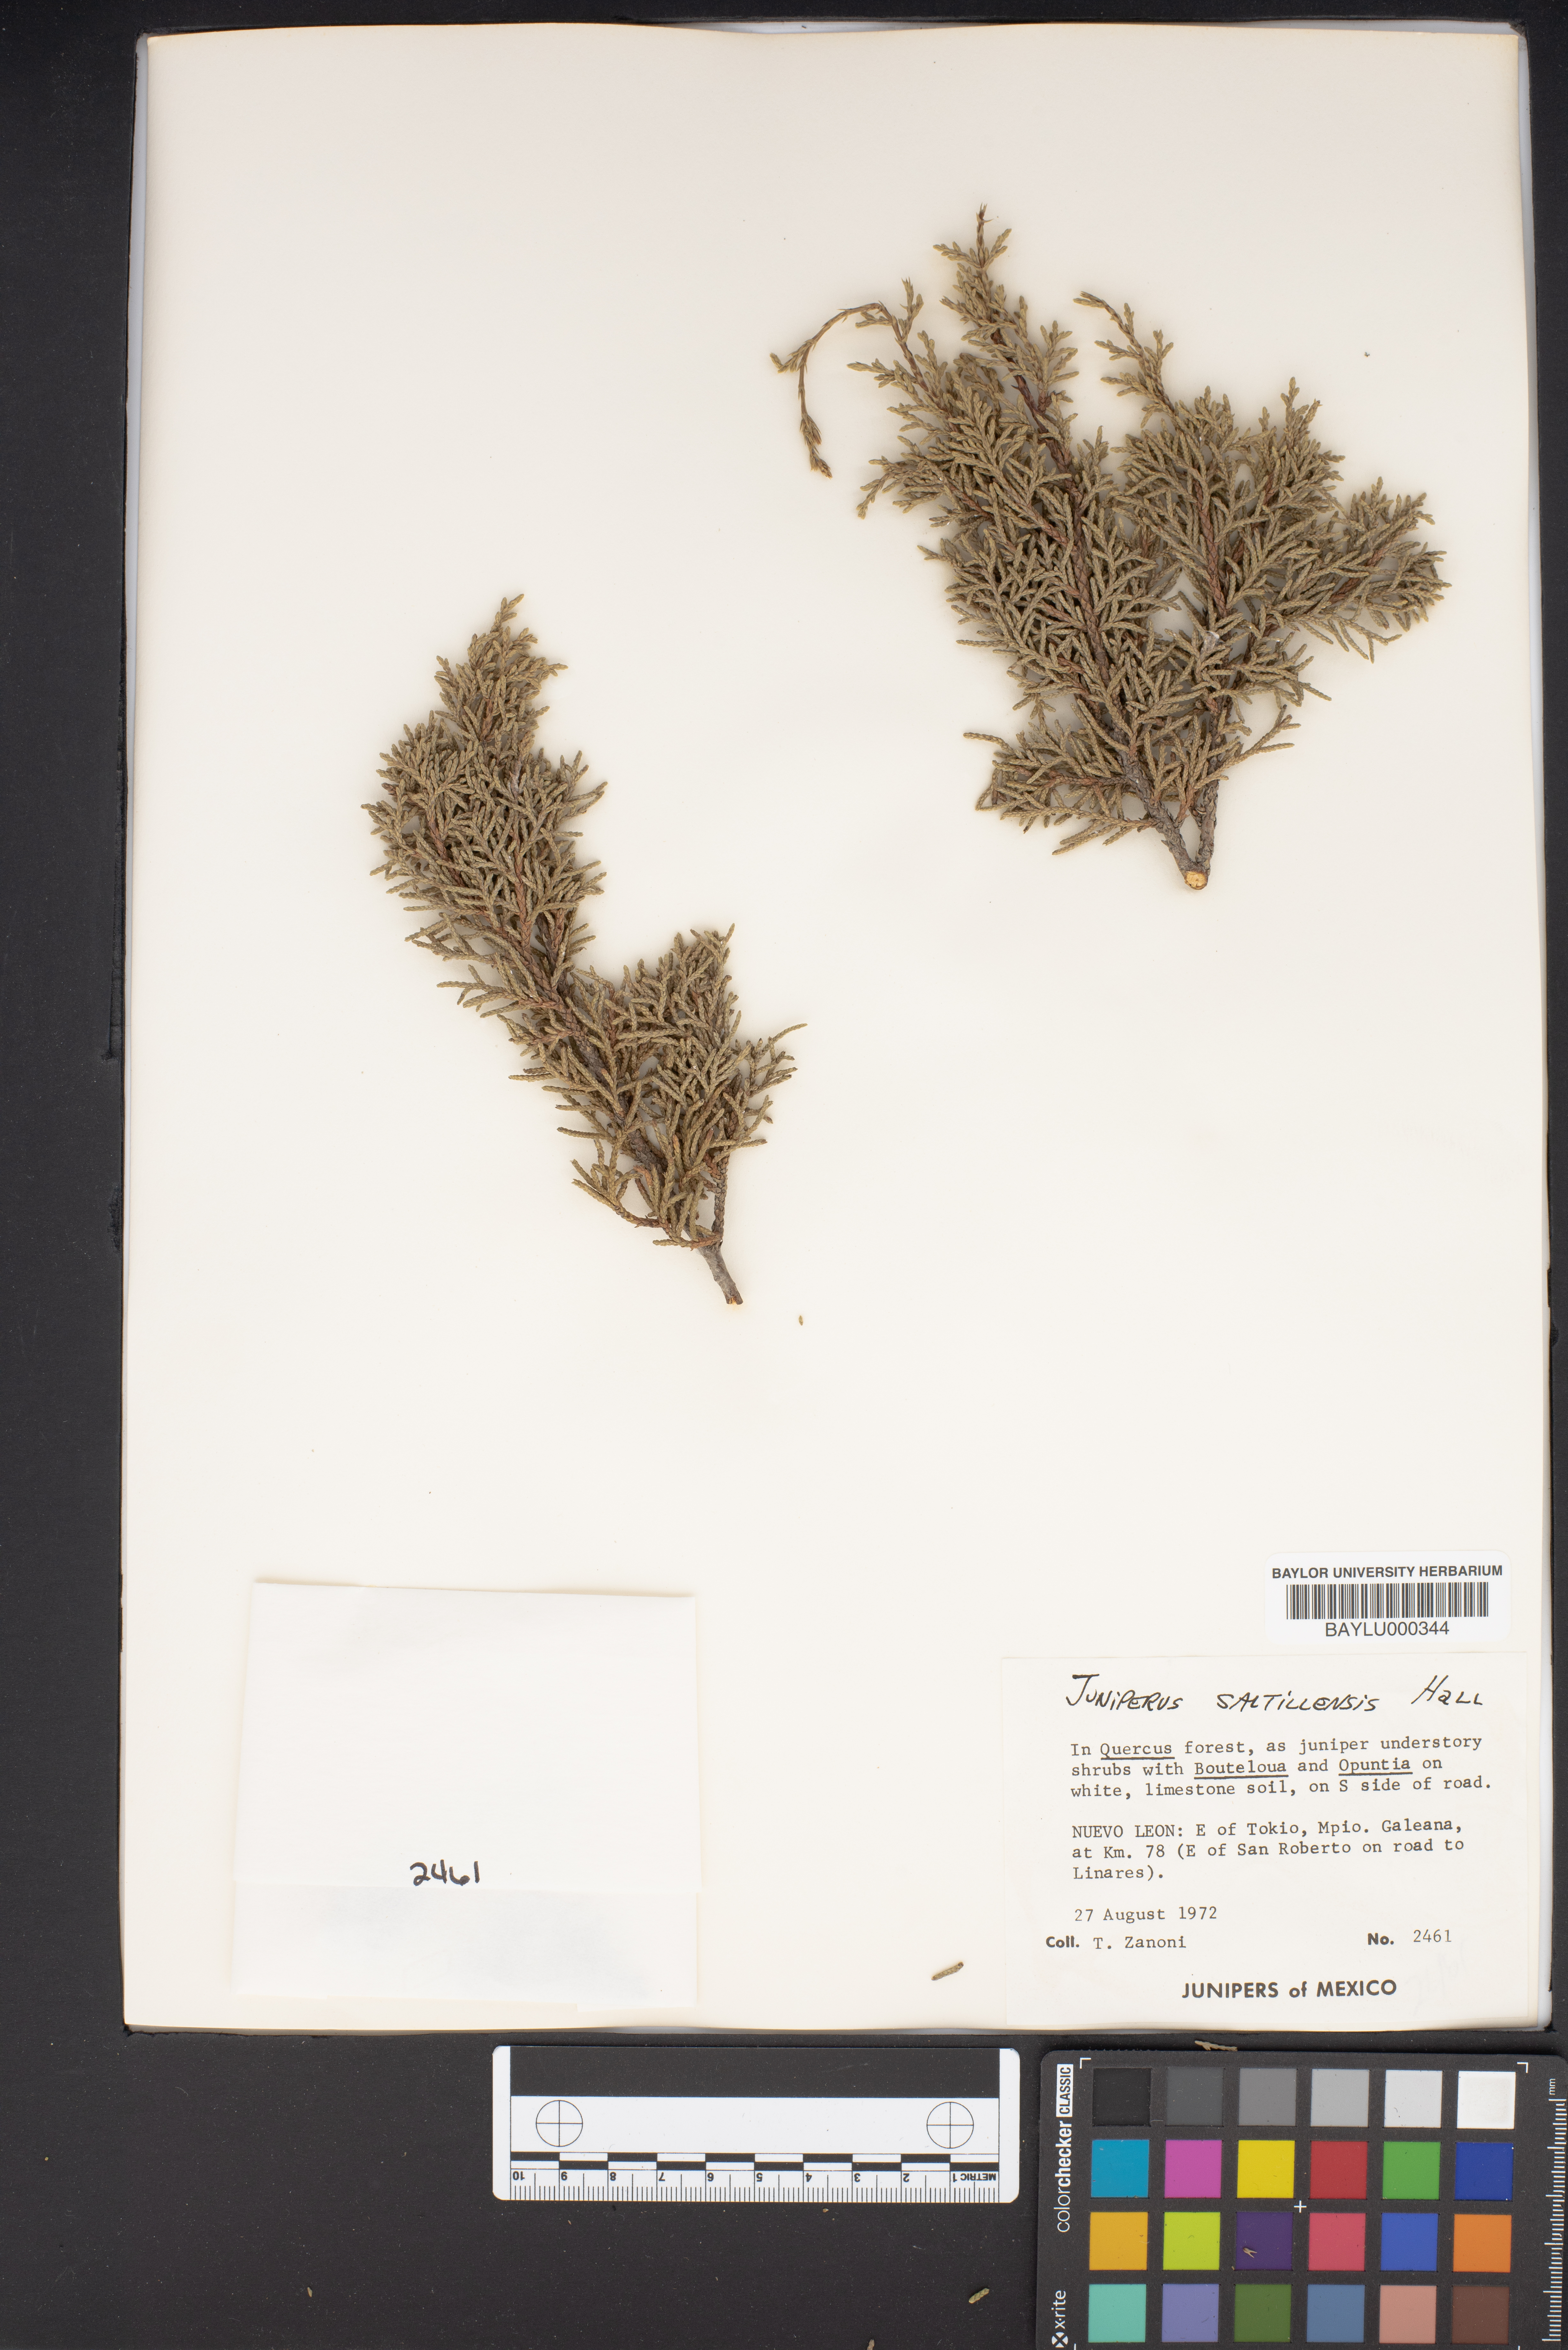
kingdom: Plantae
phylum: Tracheophyta
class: Pinopsida
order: Pinales
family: Cupressaceae
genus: Juniperus
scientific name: Juniperus saltillensis
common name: Saltillo juniper
